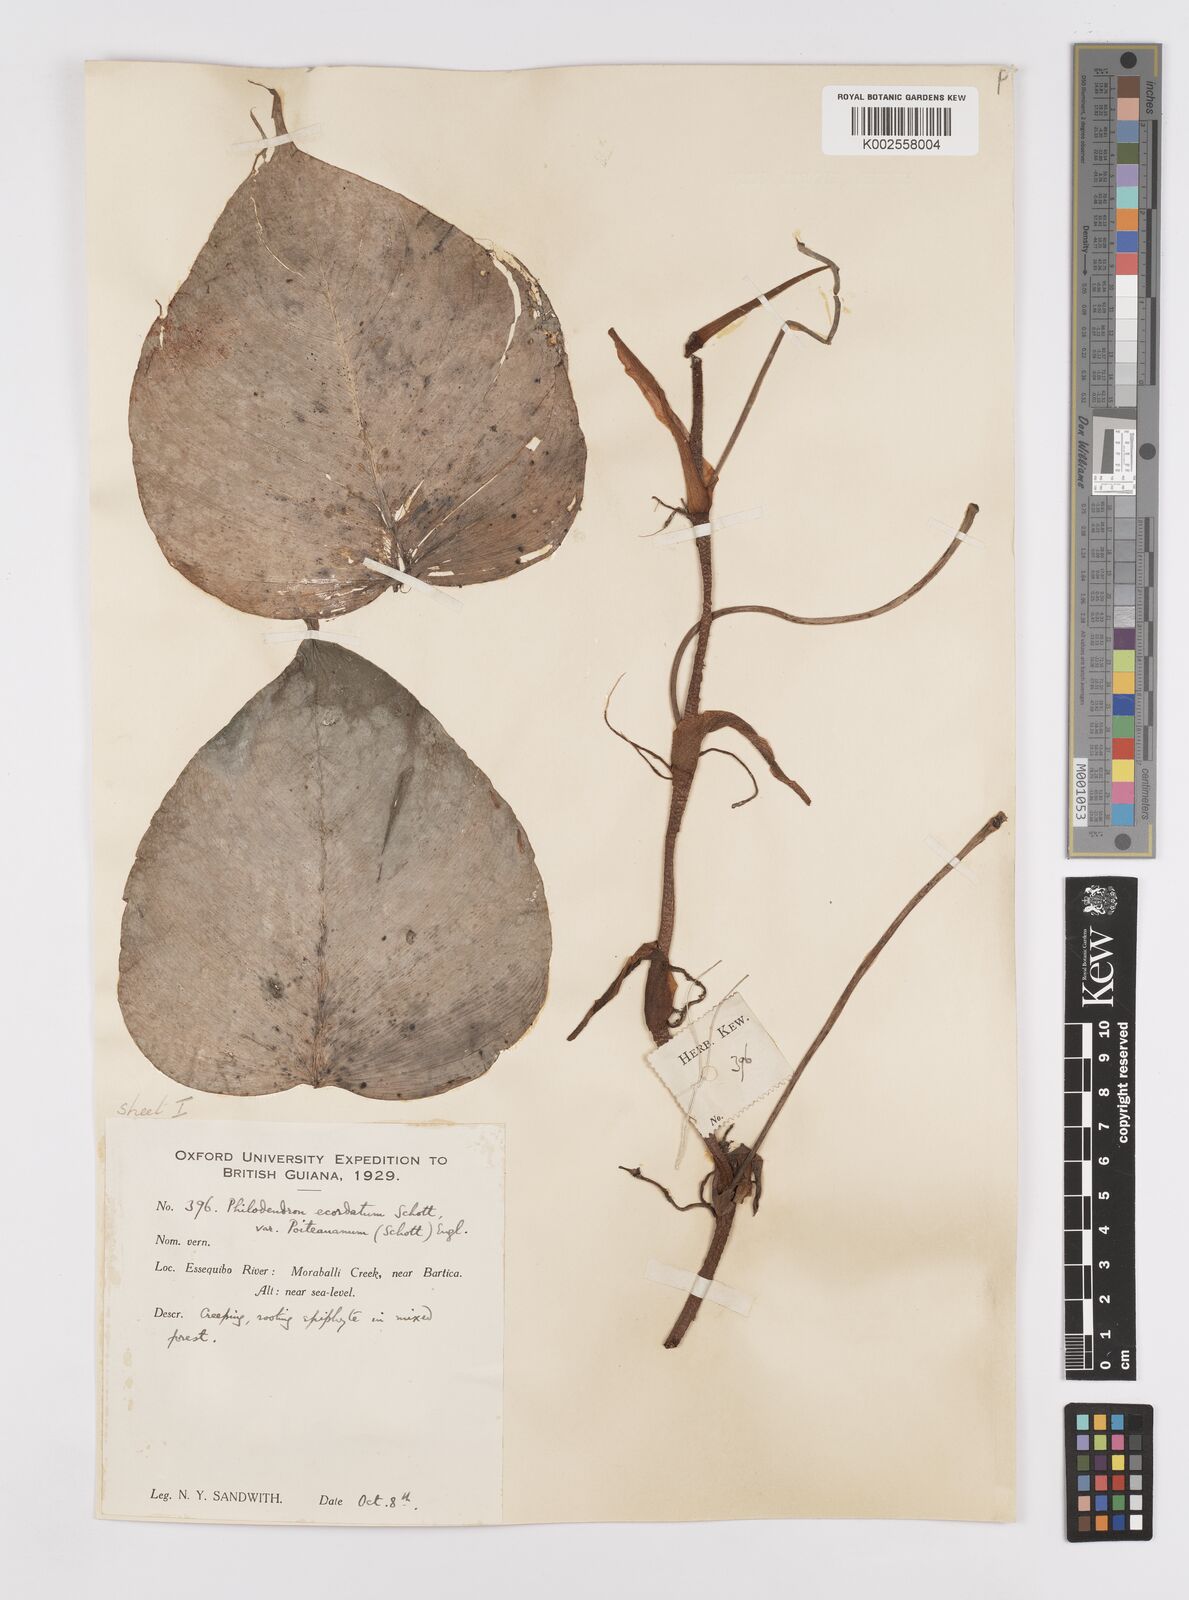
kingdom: Plantae
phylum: Tracheophyta
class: Liliopsida
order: Alismatales
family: Araceae
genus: Philodendron
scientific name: Philodendron ecordatum
